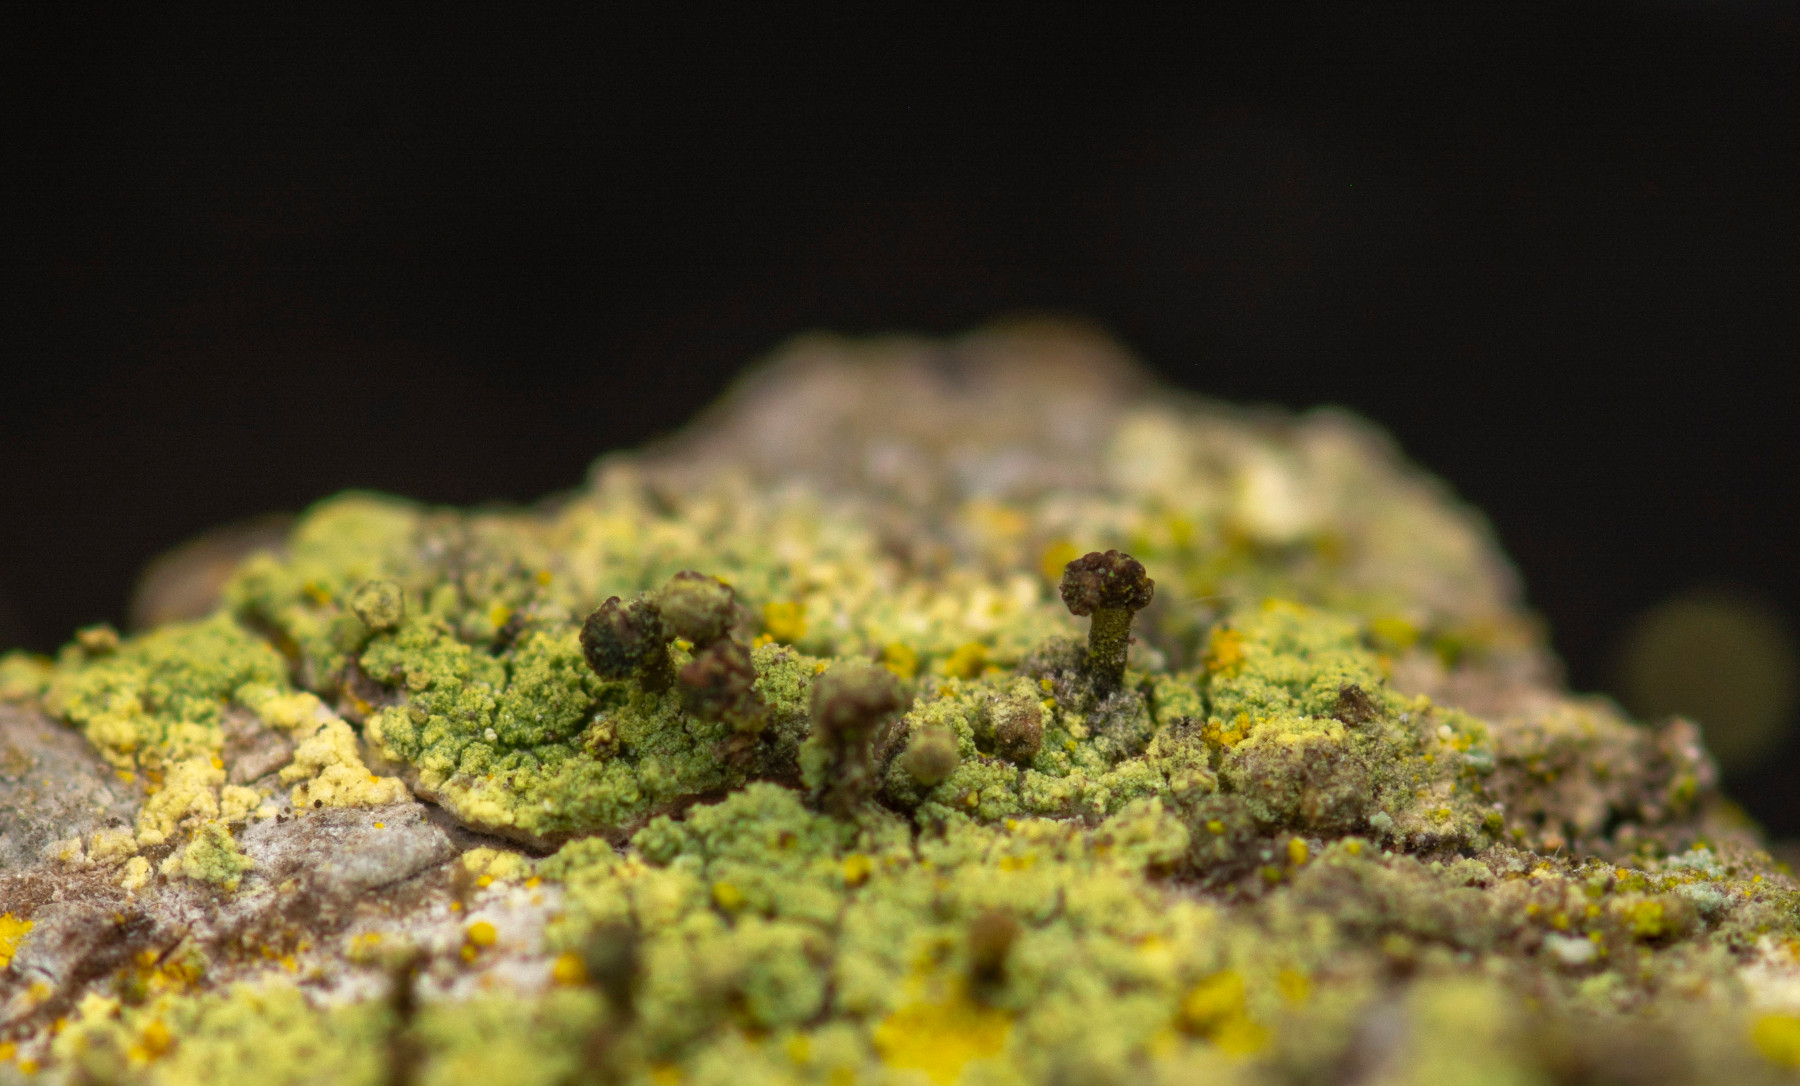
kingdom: Fungi
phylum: Ascomycota
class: Lecanoromycetes
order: Caliciales
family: Caliciaceae
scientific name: Caliciaceae
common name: nålelavfamilien
